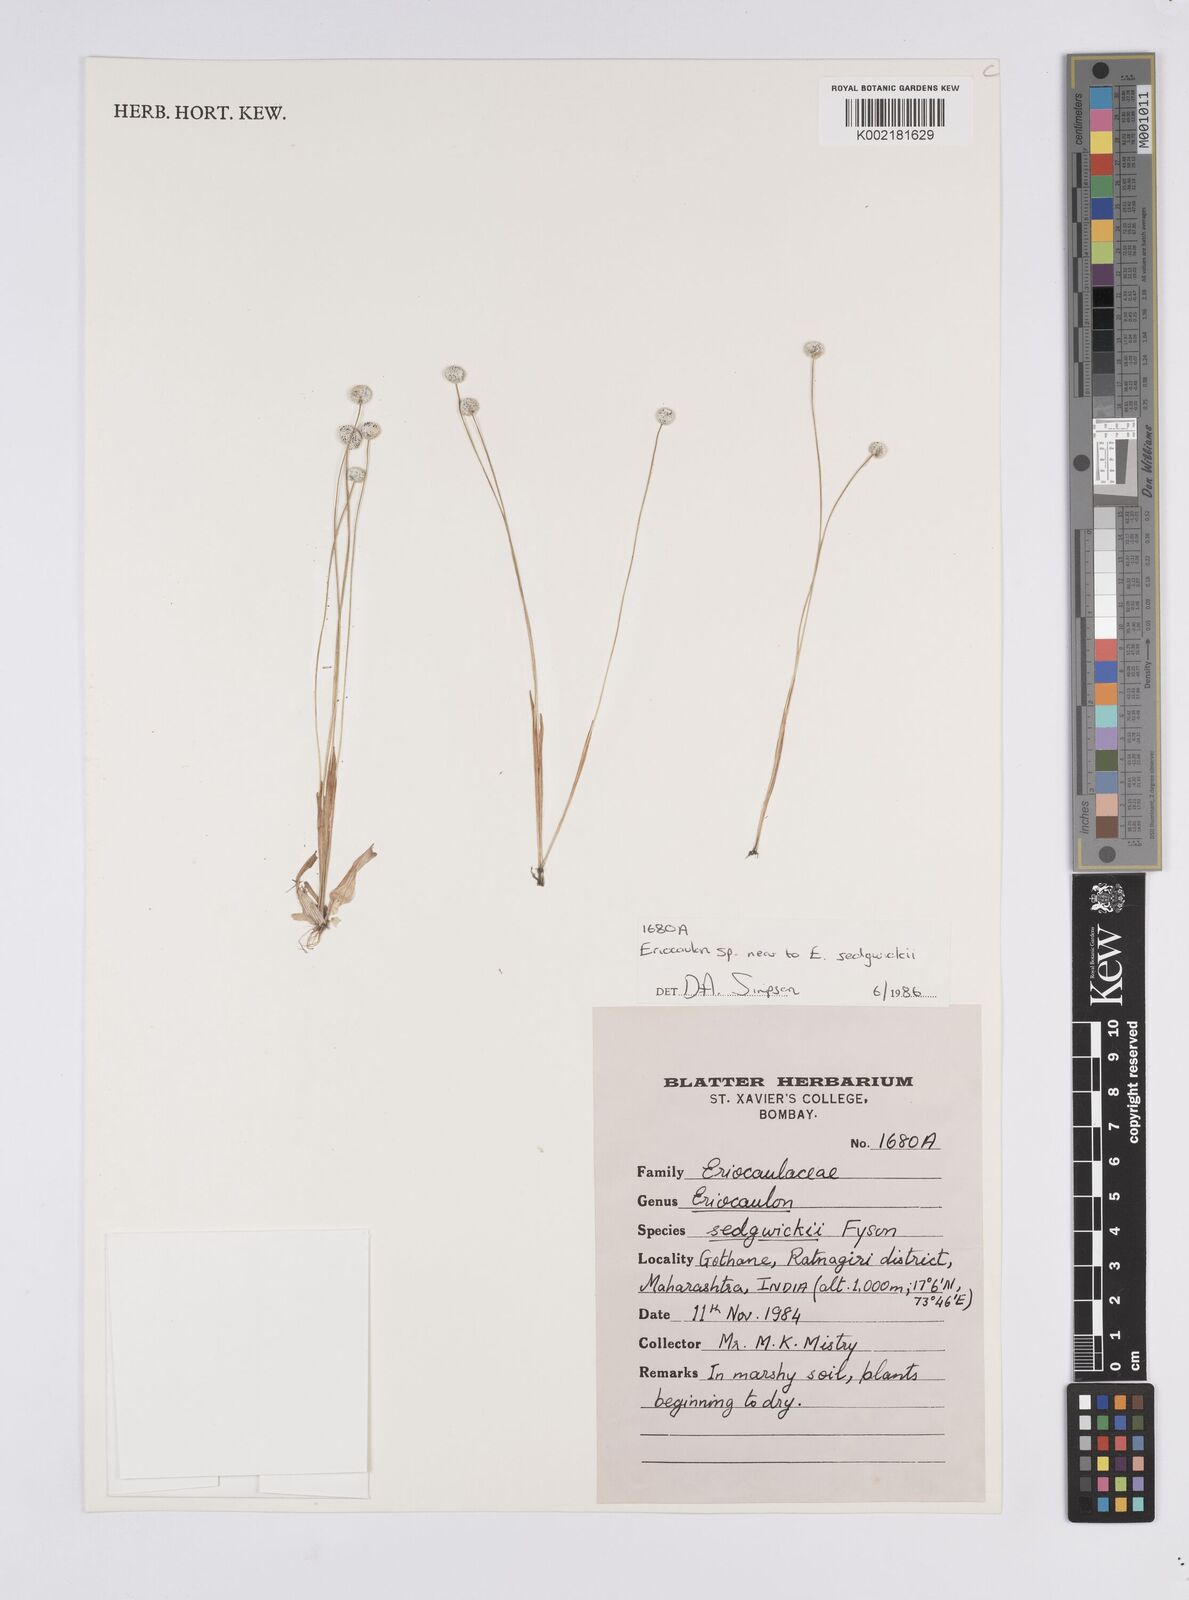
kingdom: Plantae
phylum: Tracheophyta
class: Liliopsida
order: Poales
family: Eriocaulaceae
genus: Eriocaulon
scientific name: Eriocaulon sedgwickii
